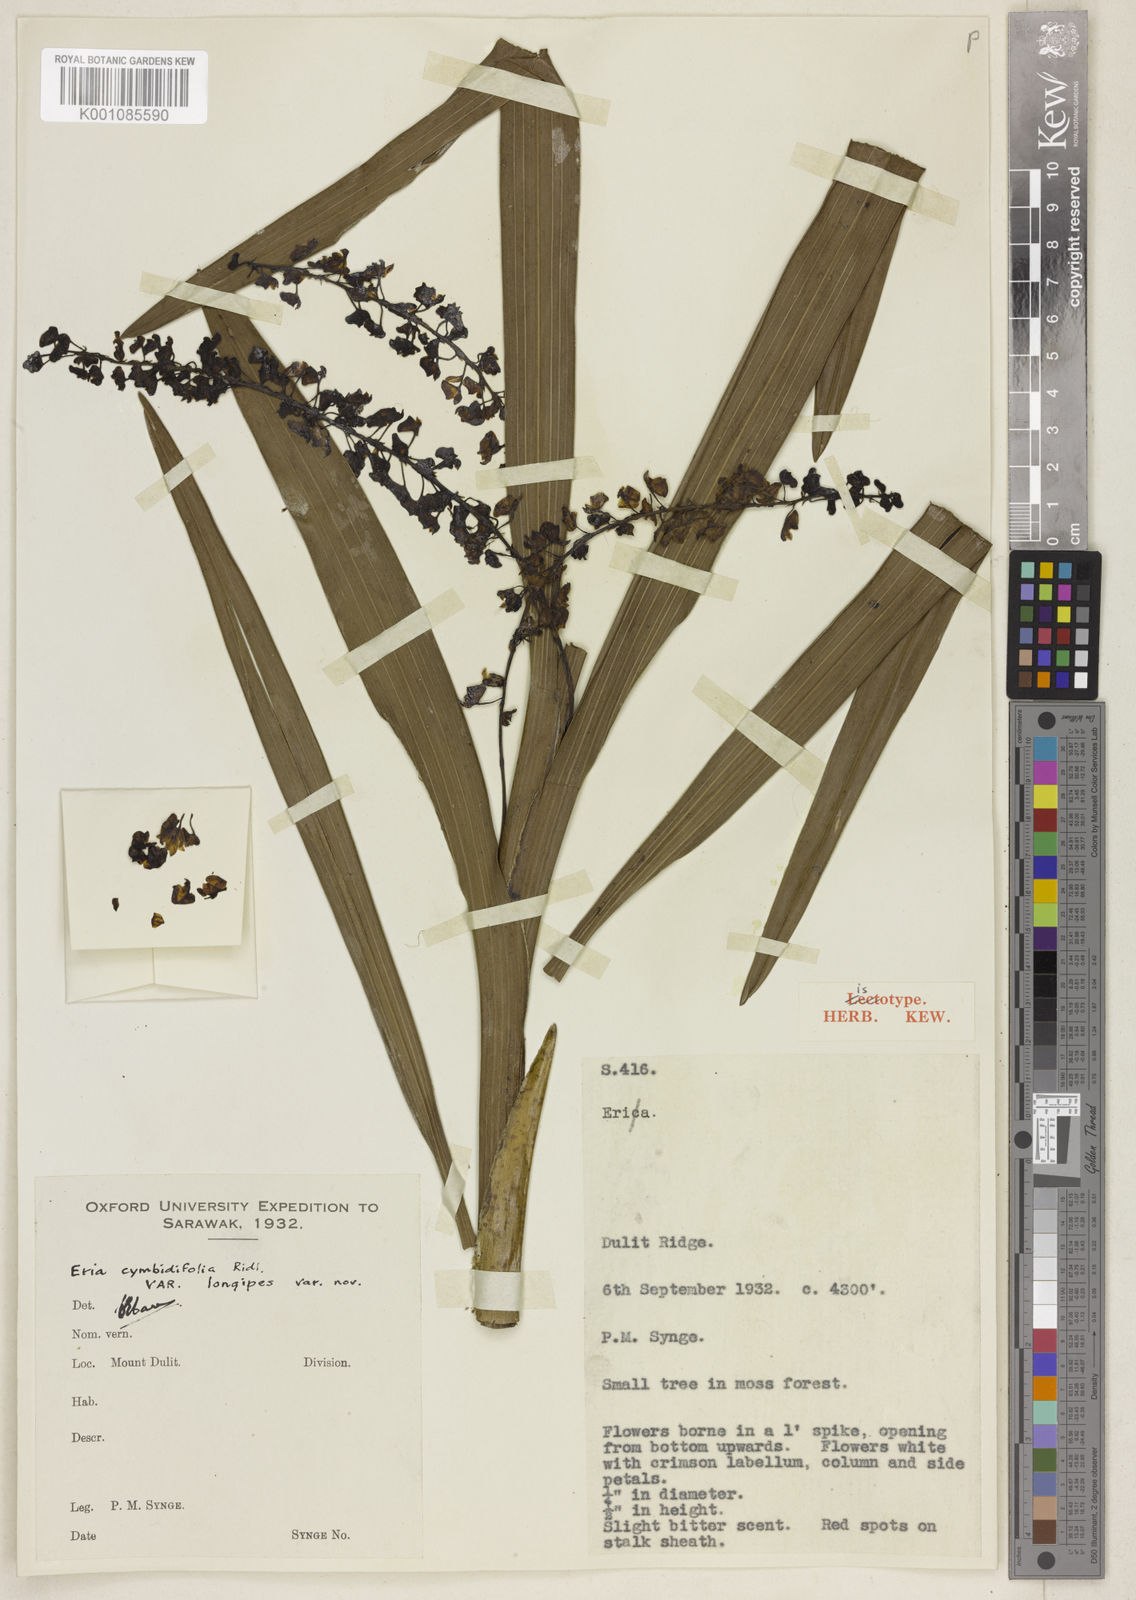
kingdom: Plantae
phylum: Tracheophyta
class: Liliopsida
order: Asparagales
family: Orchidaceae
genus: Cymboglossum
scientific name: Cymboglossum pseudocymbiforme
